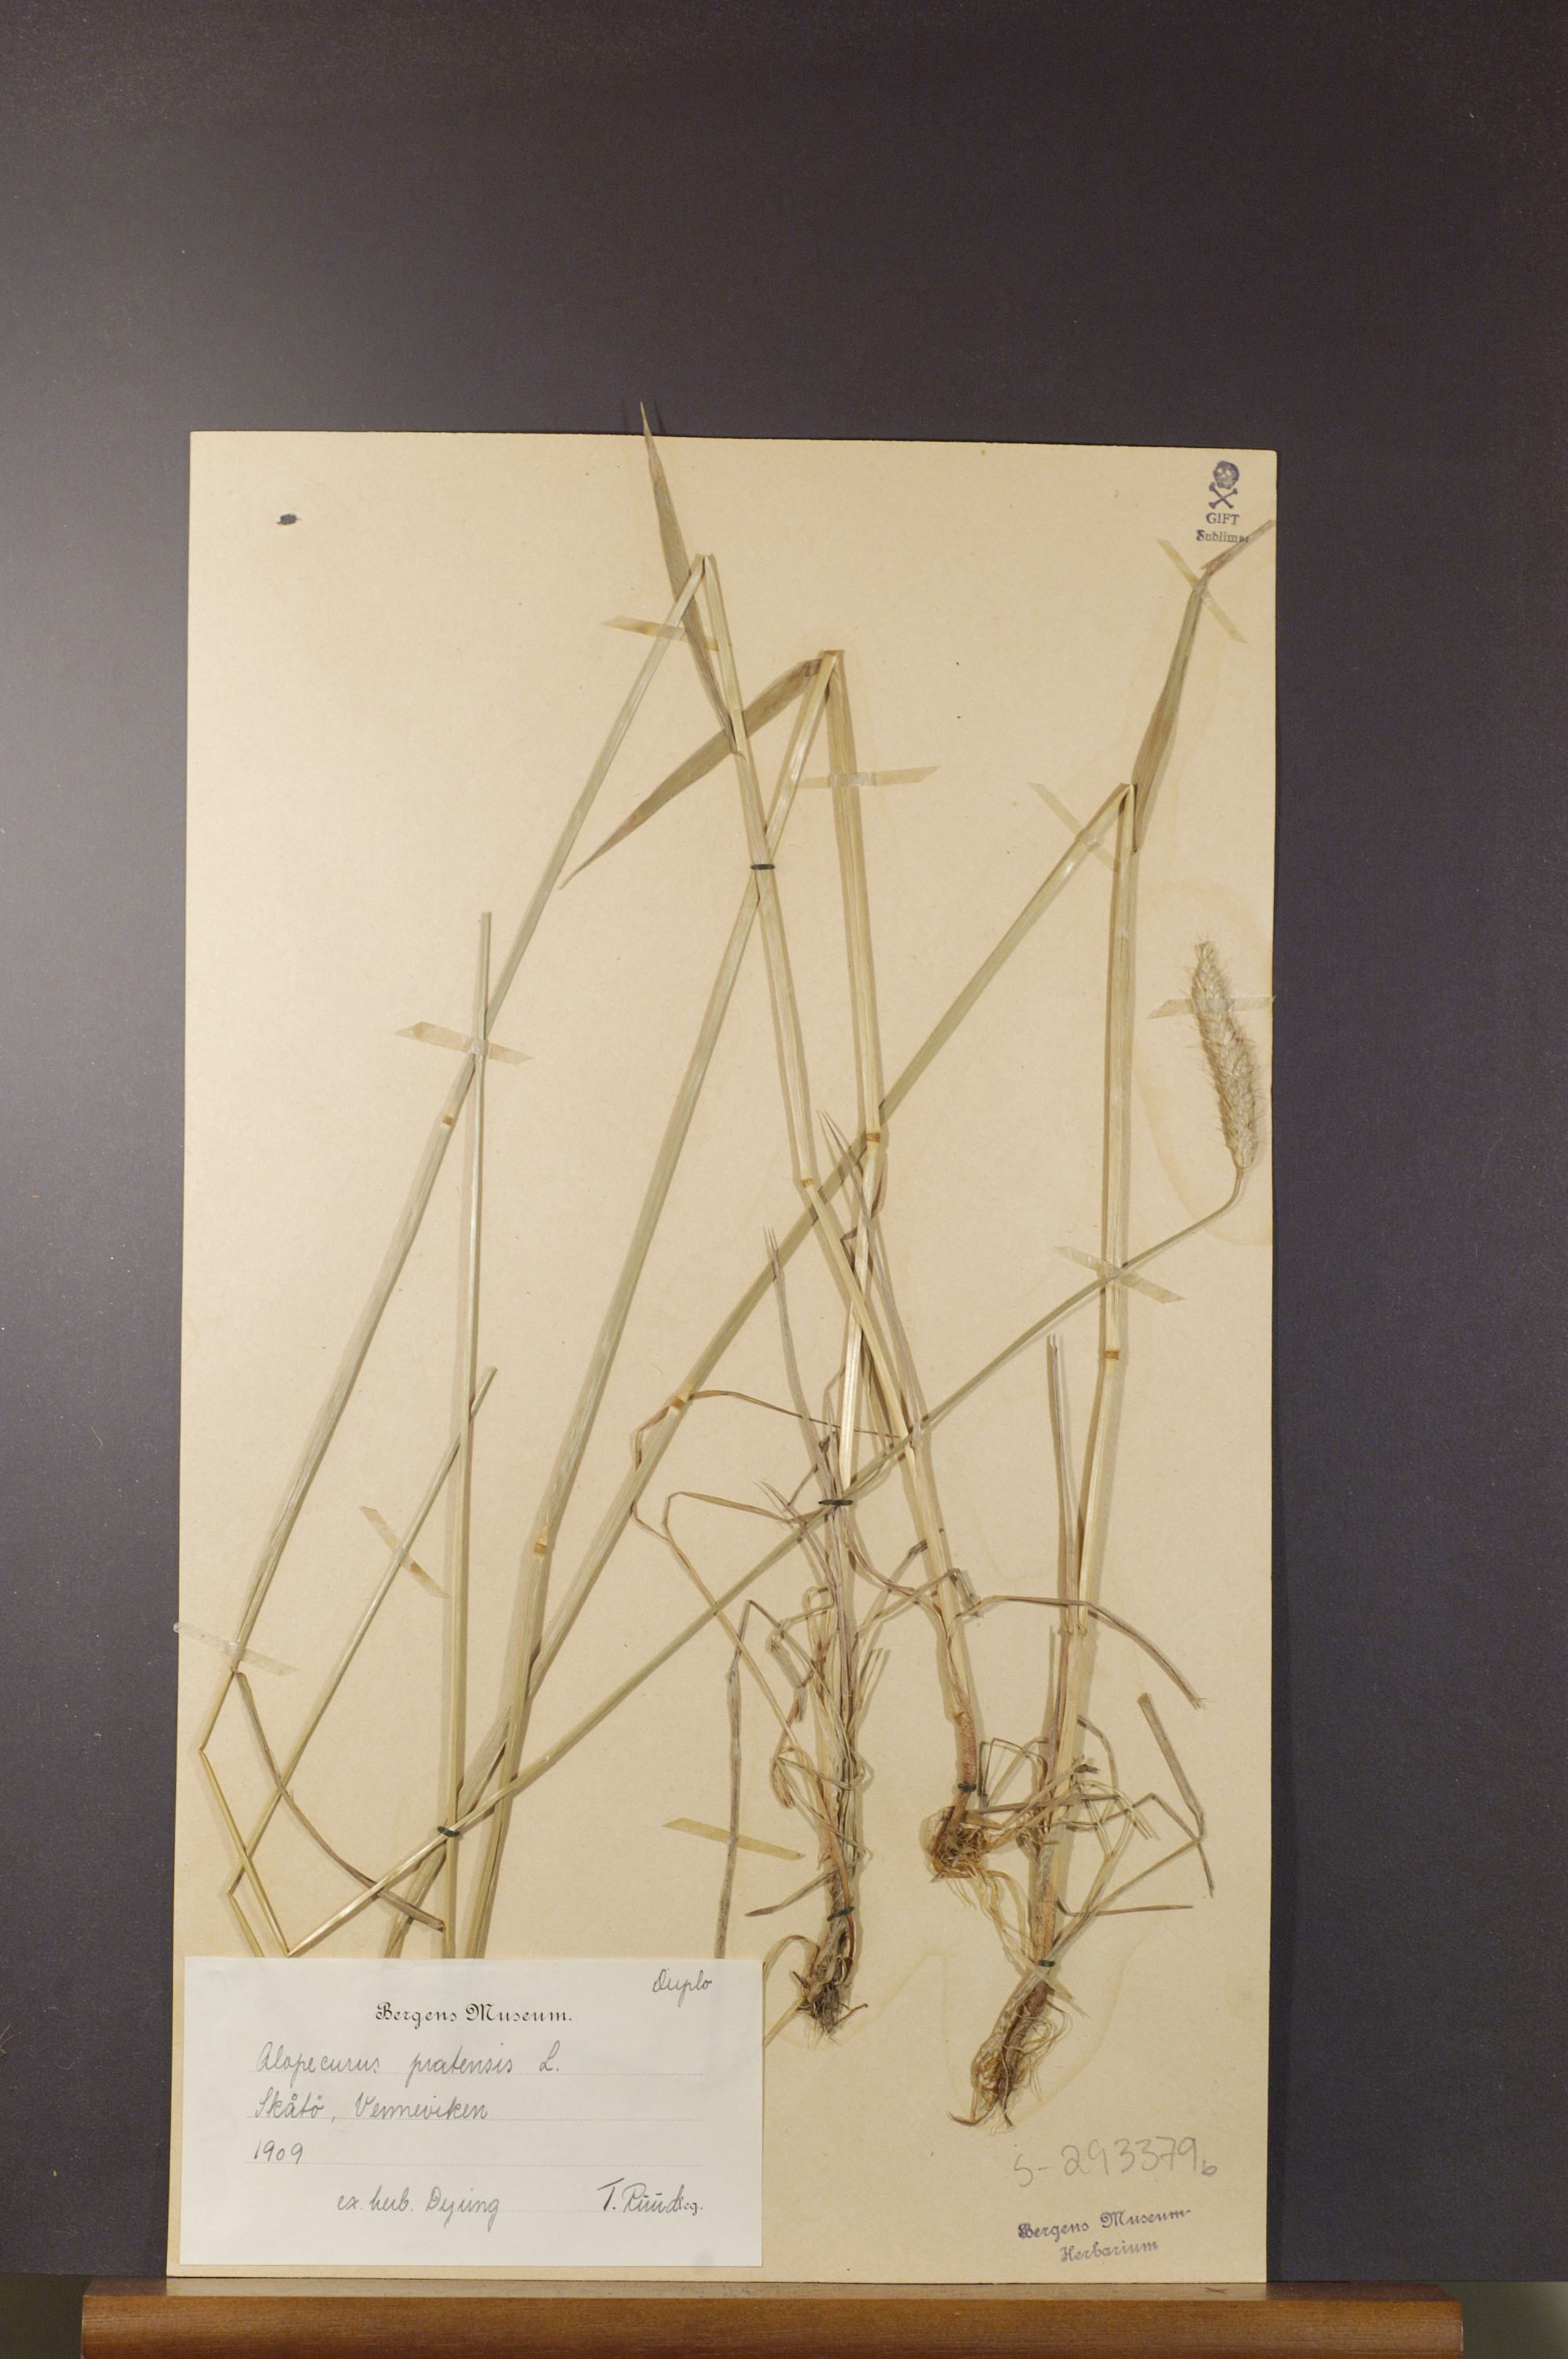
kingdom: Plantae
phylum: Tracheophyta
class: Liliopsida
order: Poales
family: Poaceae
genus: Alopecurus
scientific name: Alopecurus pratensis
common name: Meadow foxtail
